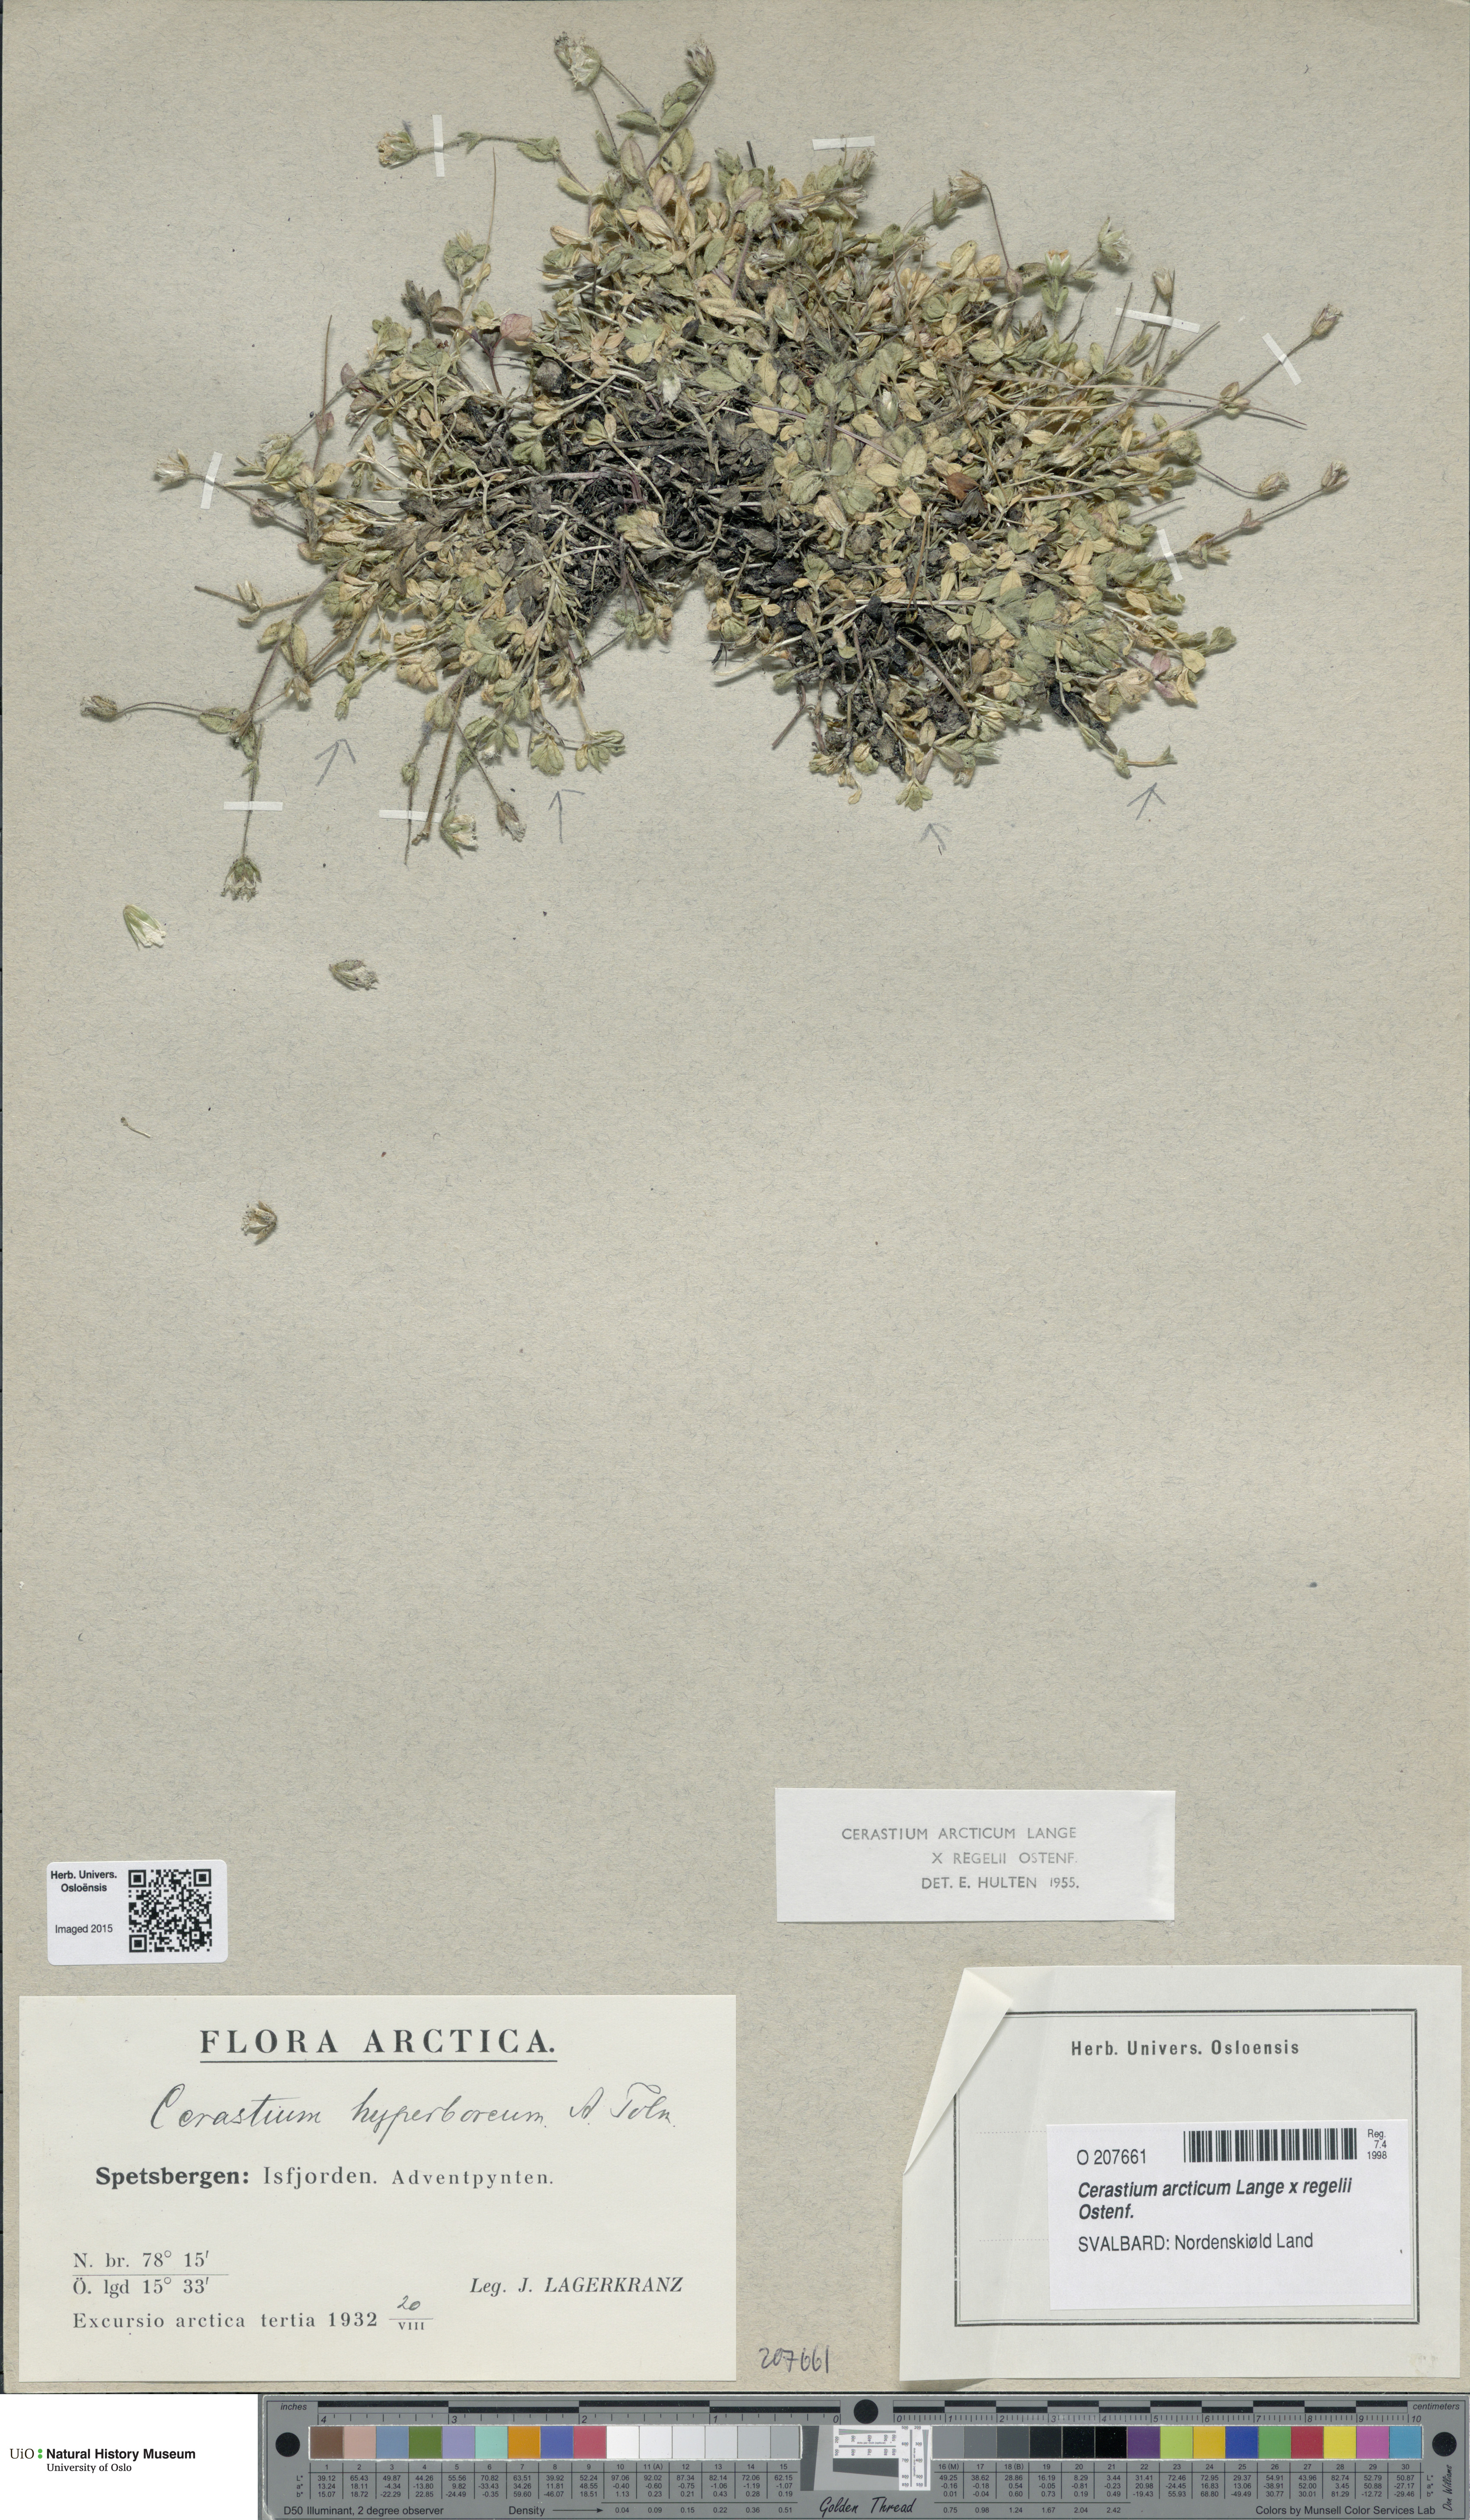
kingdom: Plantae
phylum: Tracheophyta
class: Magnoliopsida
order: Caryophyllales
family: Caryophyllaceae
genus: Cerastium
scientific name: Cerastium
